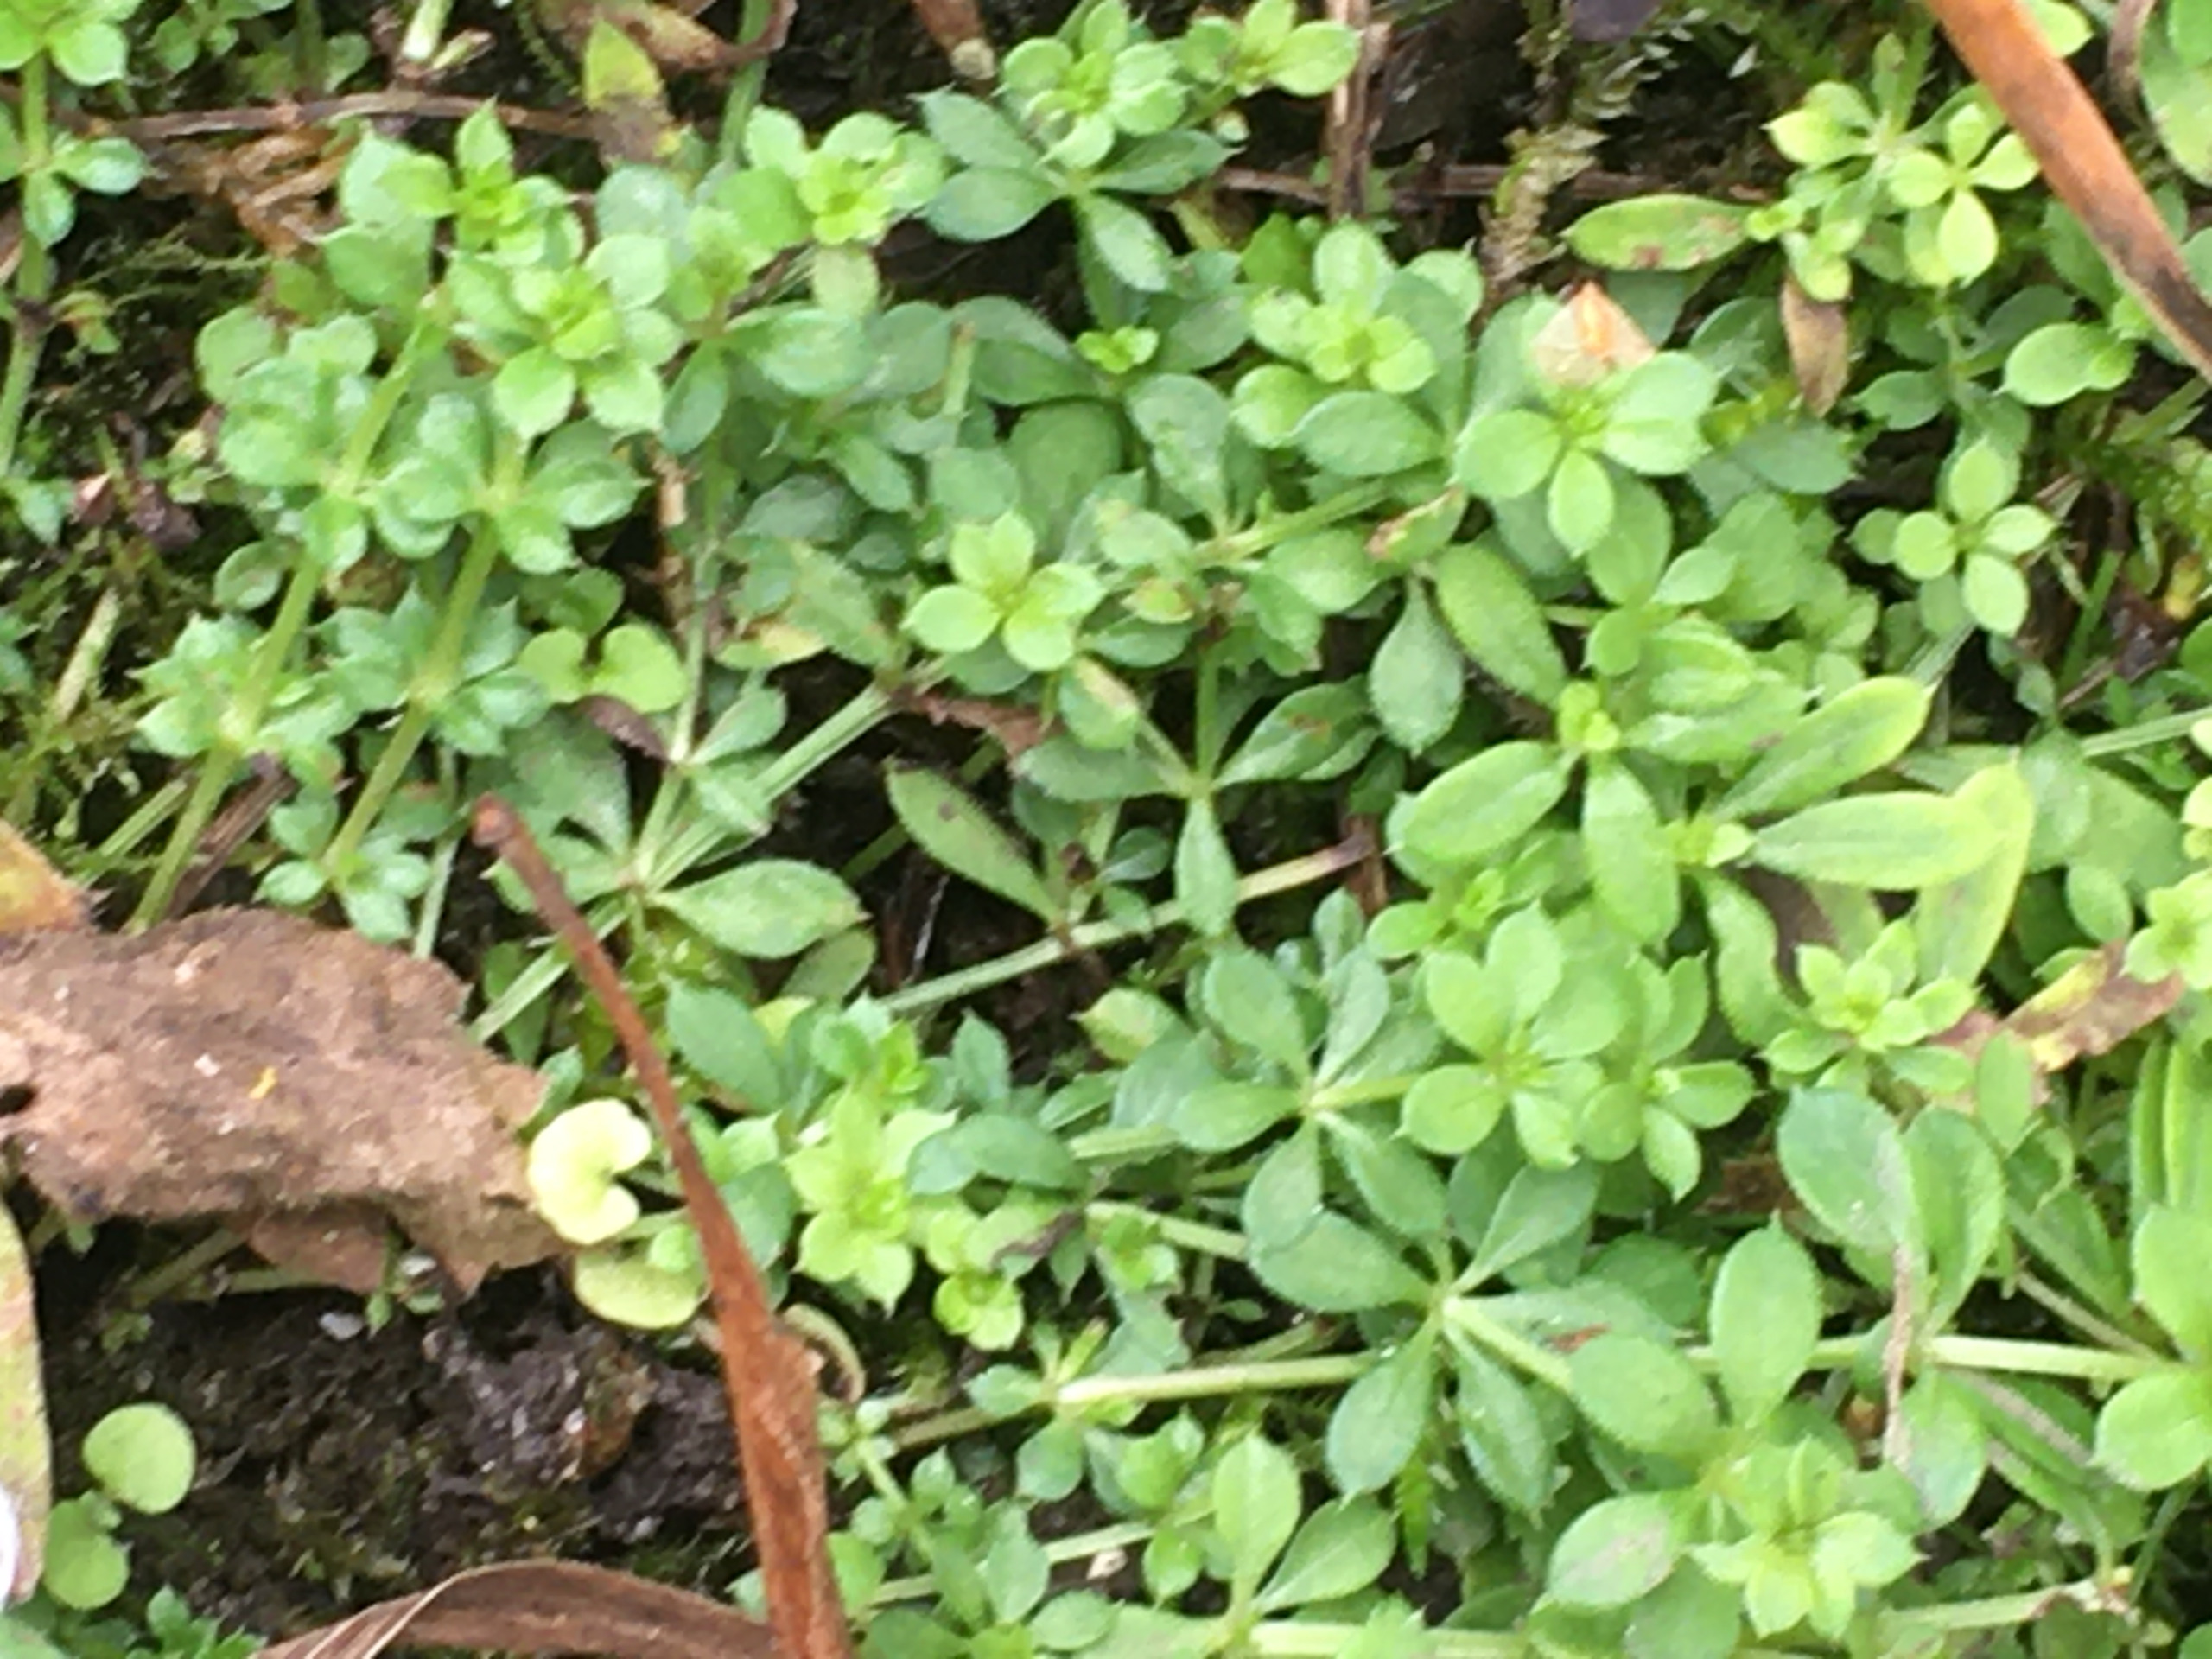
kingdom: Plantae
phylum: Tracheophyta
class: Magnoliopsida
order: Gentianales
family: Rubiaceae
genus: Galium
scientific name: Galium aparine
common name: Burre-snerre
